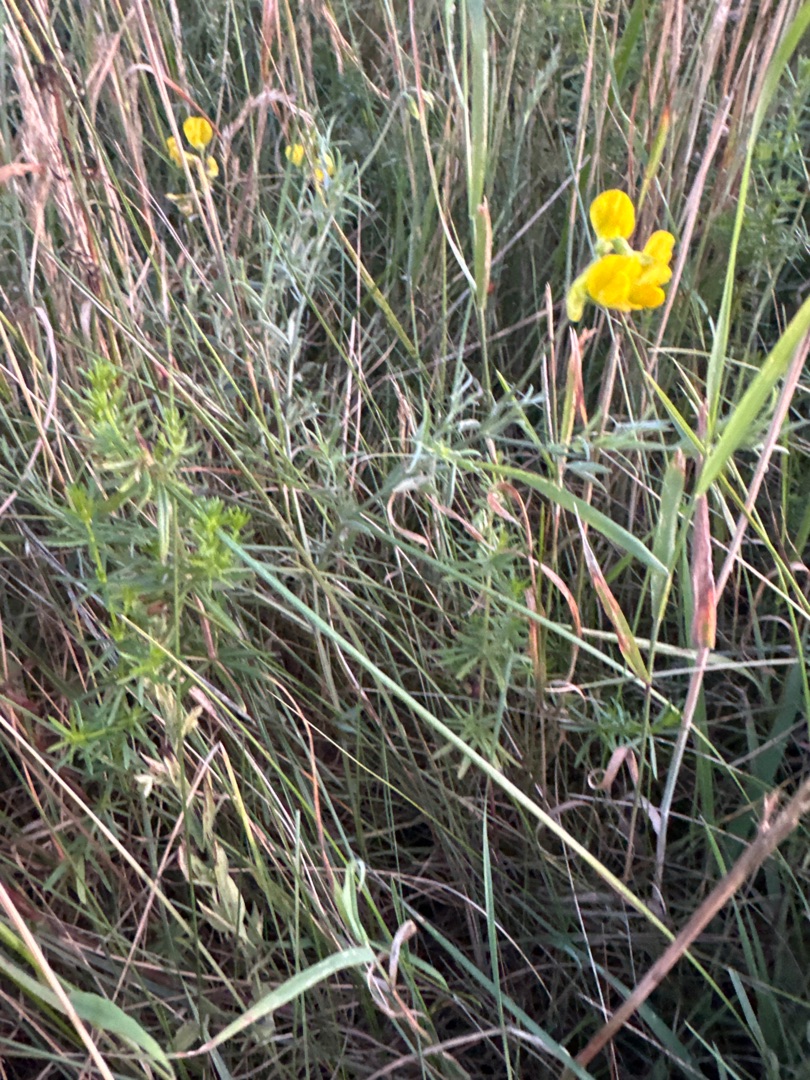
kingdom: Plantae
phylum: Tracheophyta
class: Magnoliopsida
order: Fabales
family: Fabaceae
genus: Lathyrus
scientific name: Lathyrus pratensis
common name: Gul fladbælg
